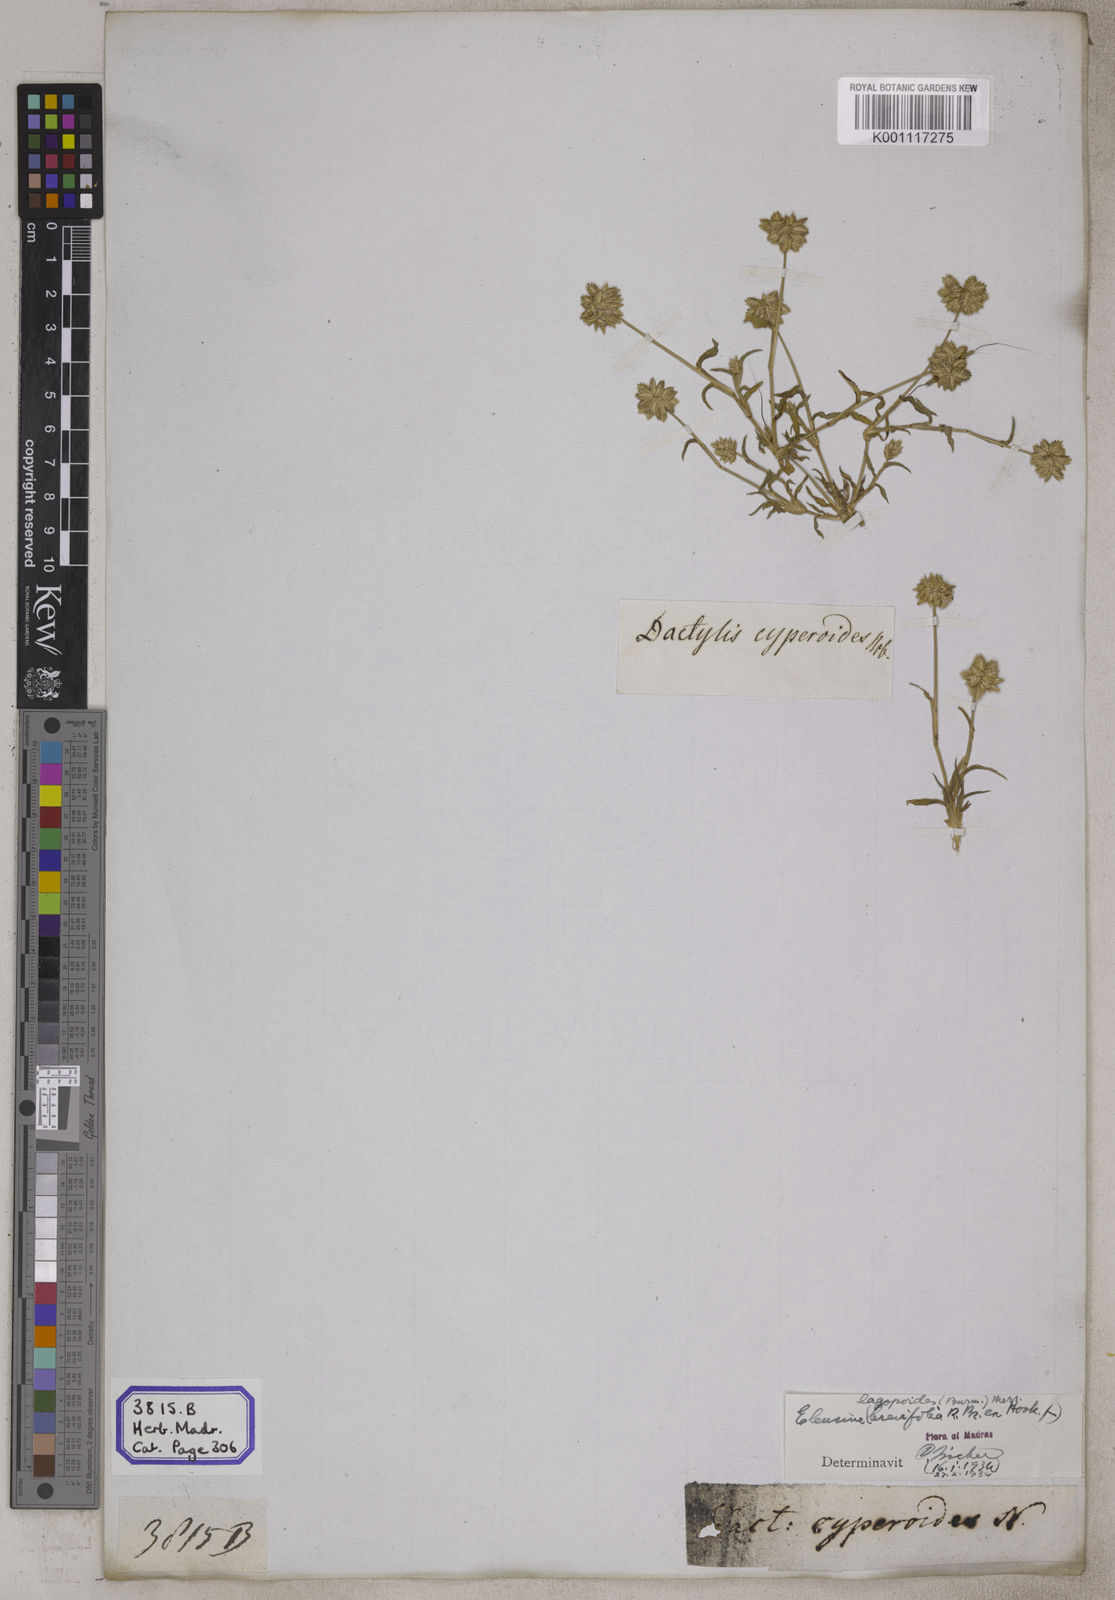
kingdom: Plantae
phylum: Tracheophyta
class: Liliopsida
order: Poales
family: Poaceae
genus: Eleusine
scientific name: Eleusine
